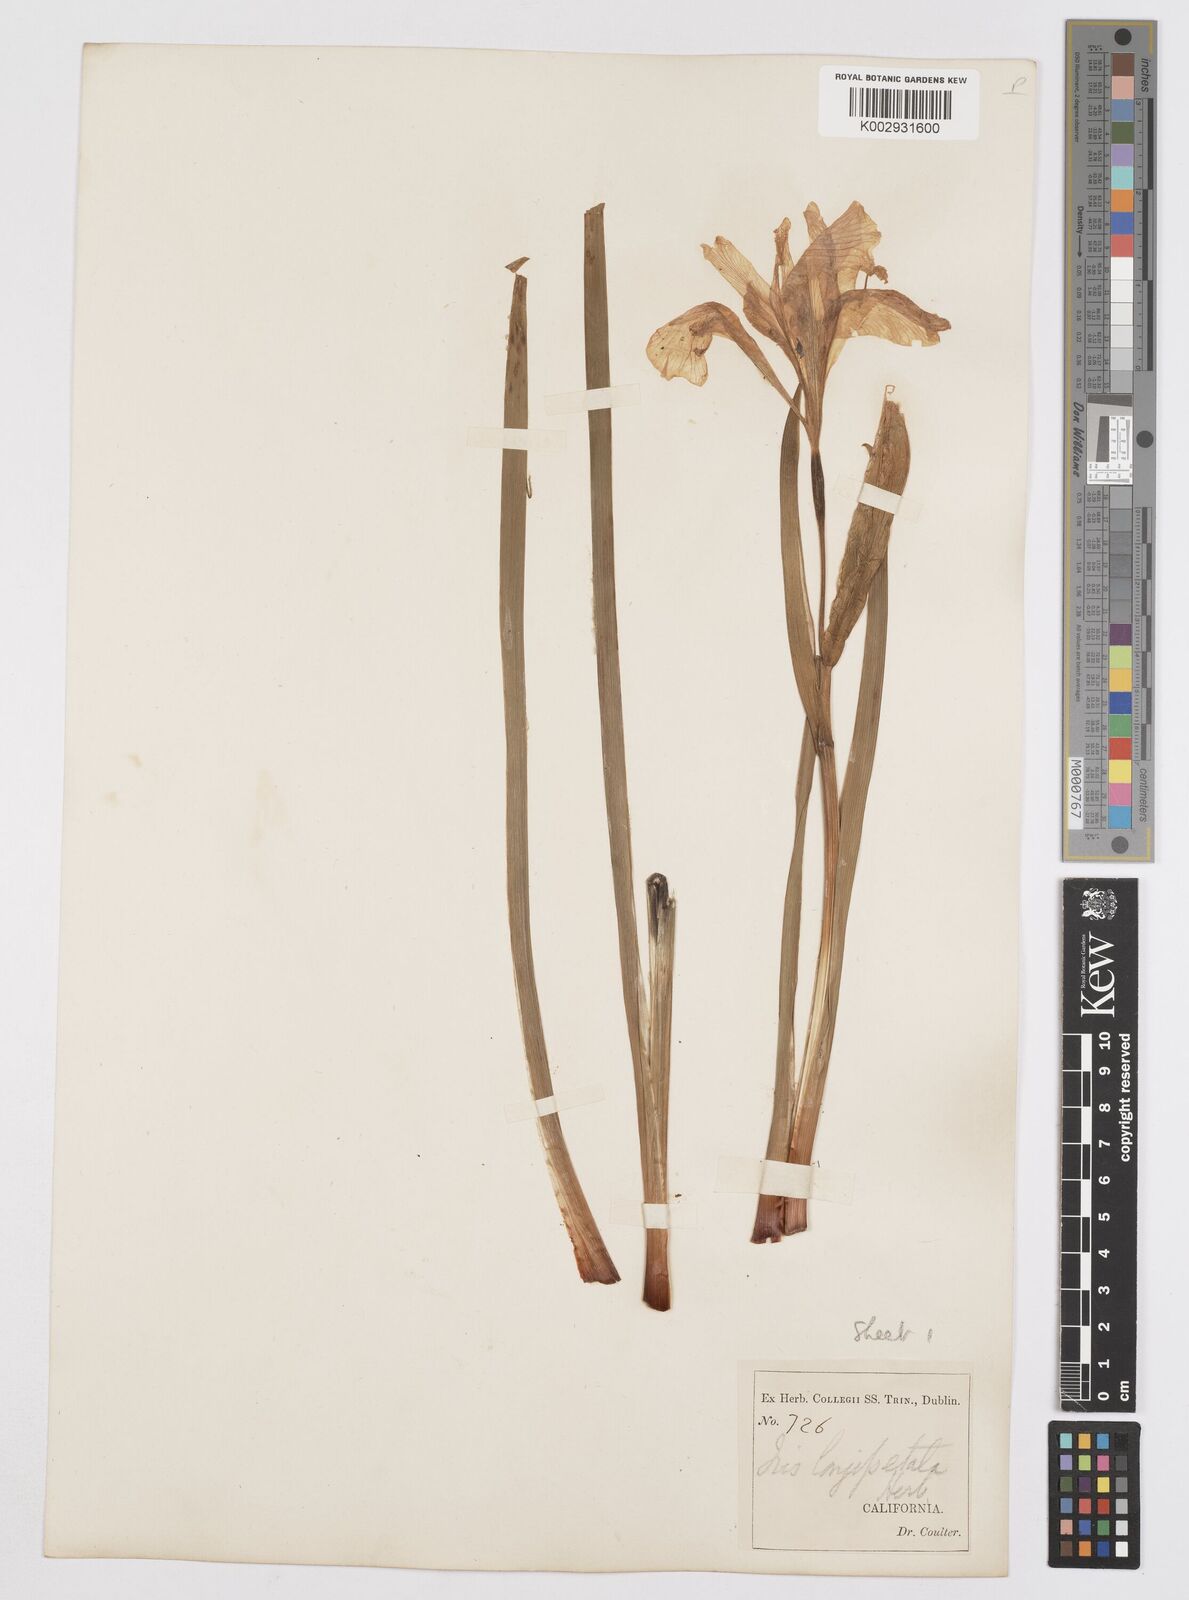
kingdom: Plantae
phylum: Tracheophyta
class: Liliopsida
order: Asparagales
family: Iridaceae
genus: Iris
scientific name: Iris longipetala
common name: Long-petal iris
